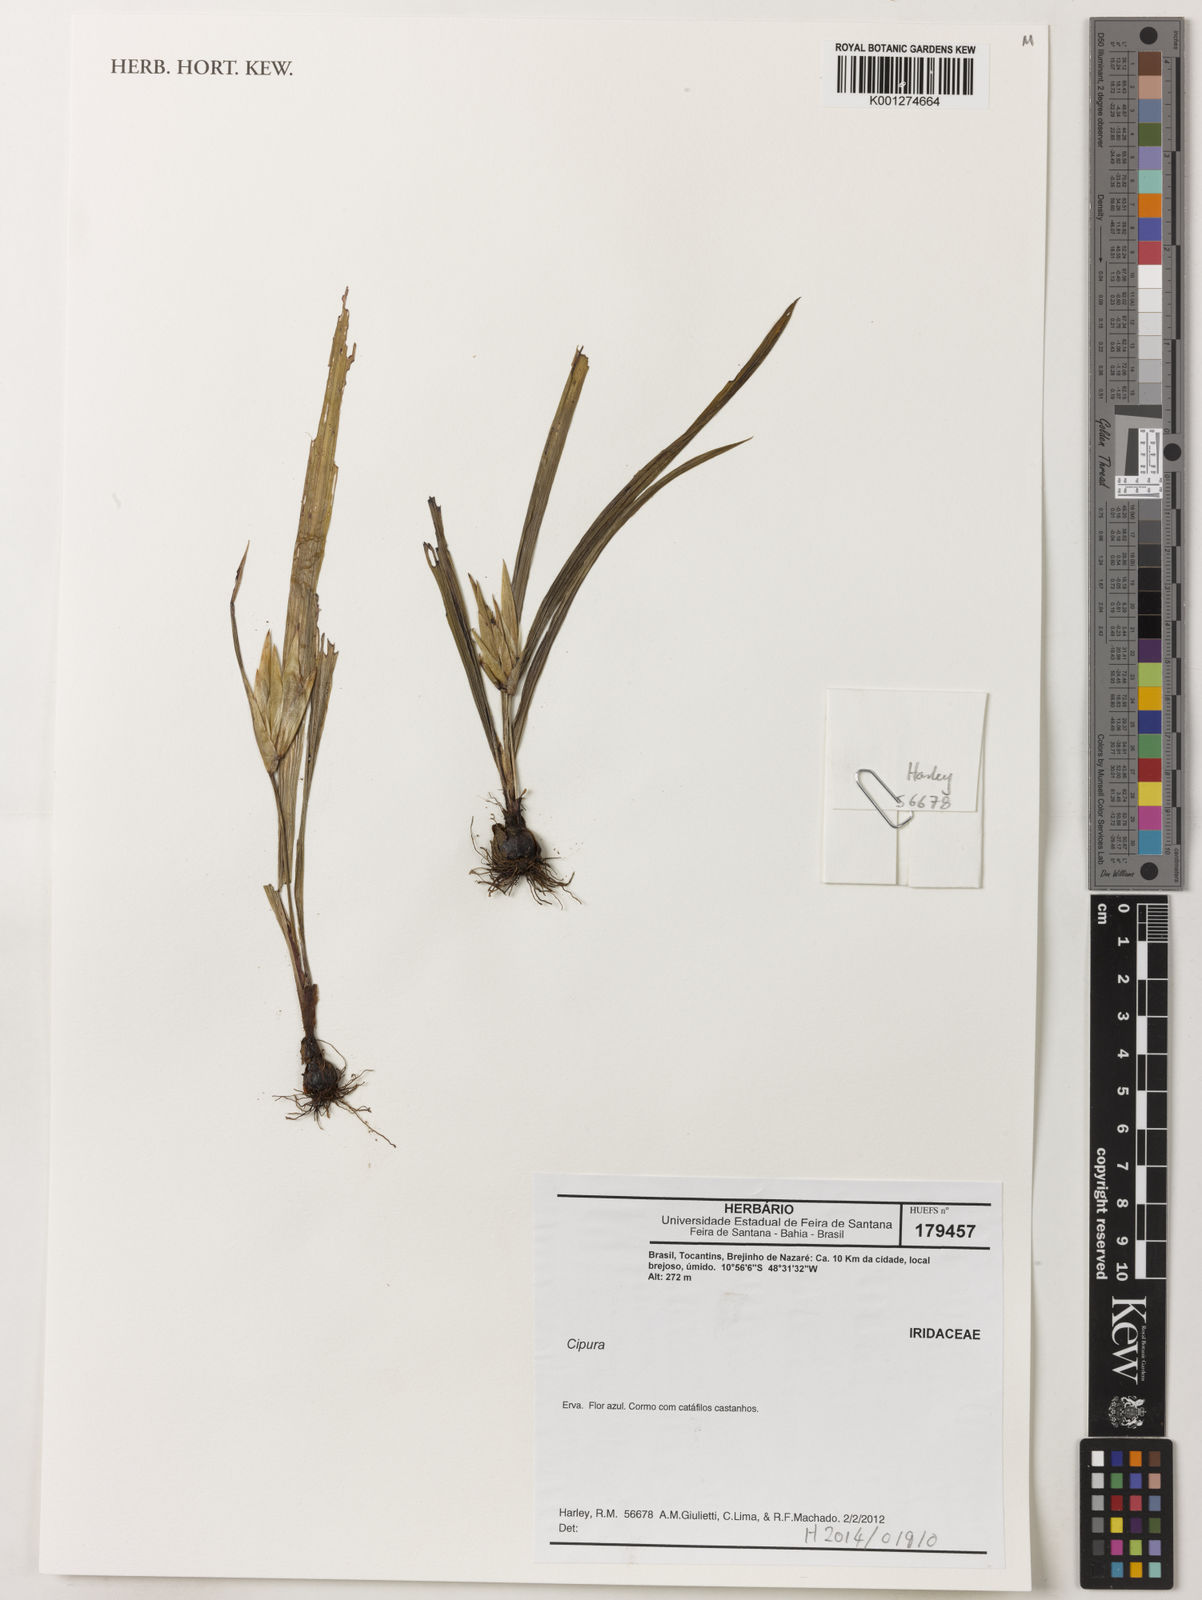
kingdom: Plantae
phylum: Tracheophyta
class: Liliopsida
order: Asparagales
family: Iridaceae
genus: Cipura
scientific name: Cipura
